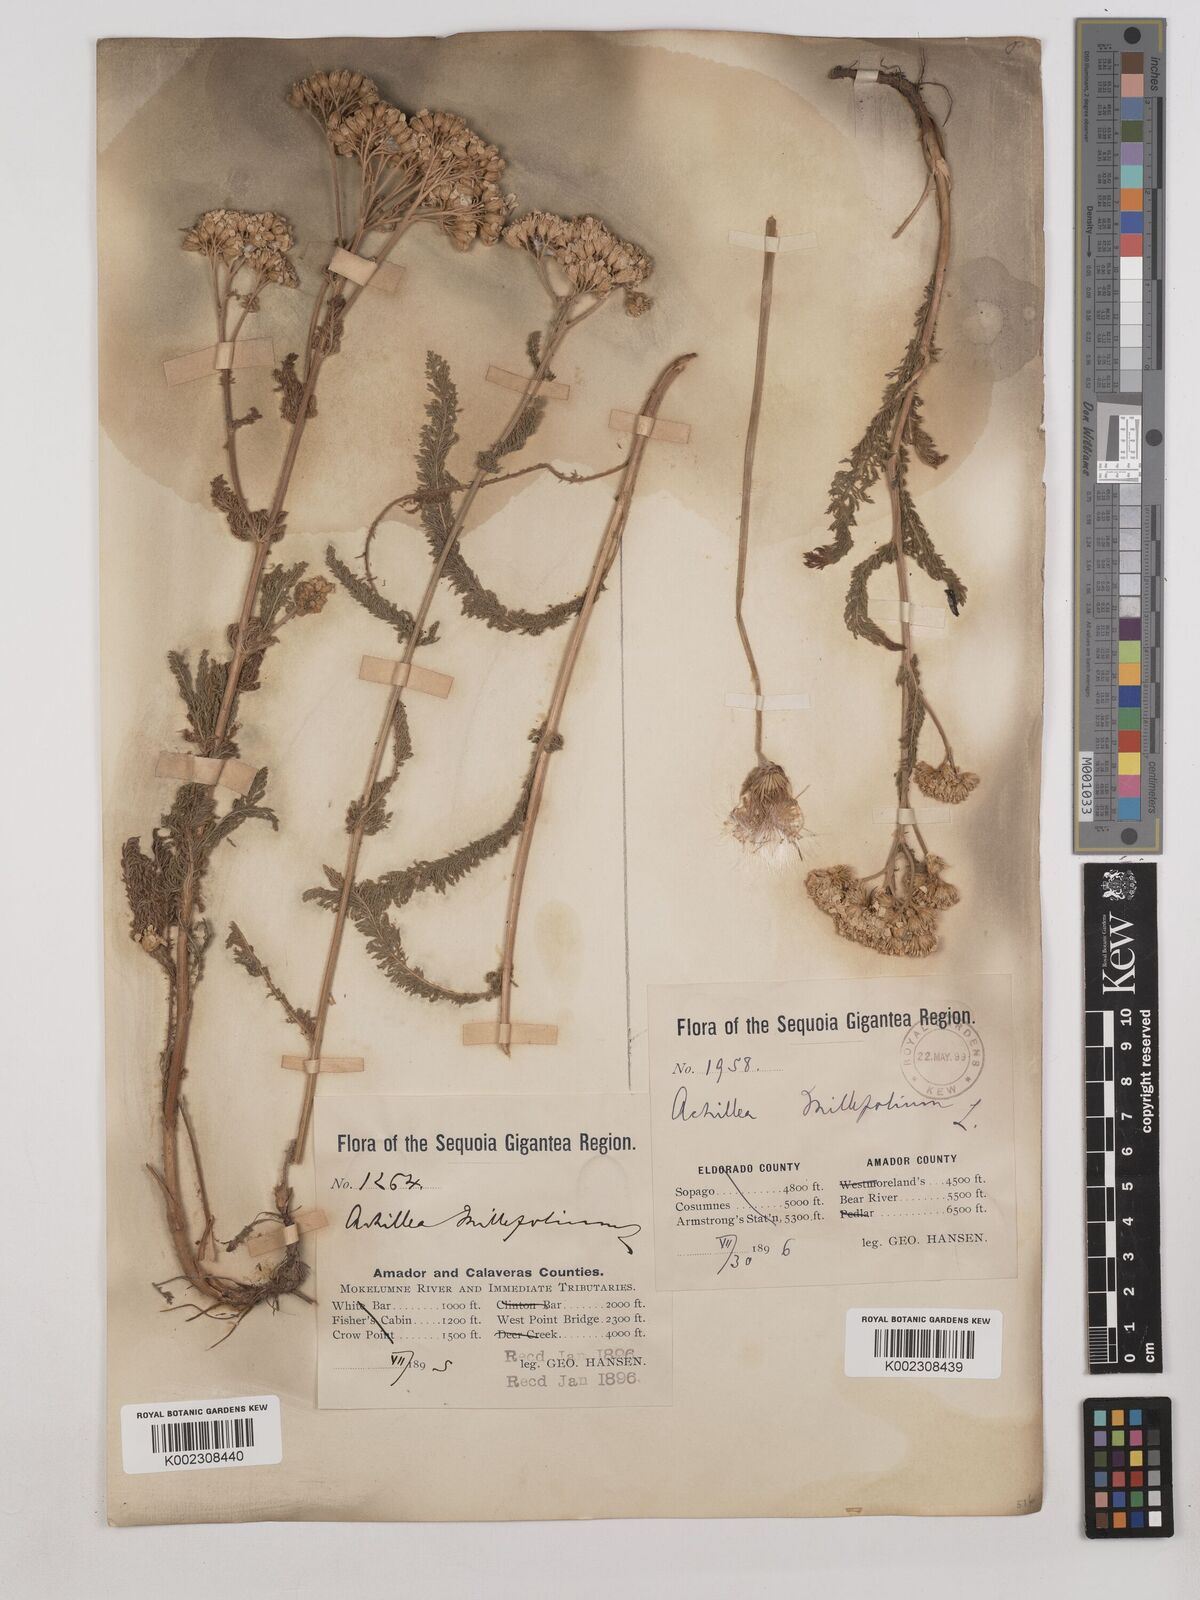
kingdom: Plantae
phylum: Tracheophyta
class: Magnoliopsida
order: Asterales
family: Asteraceae
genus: Achillea
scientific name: Achillea millefolium
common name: Yarrow
